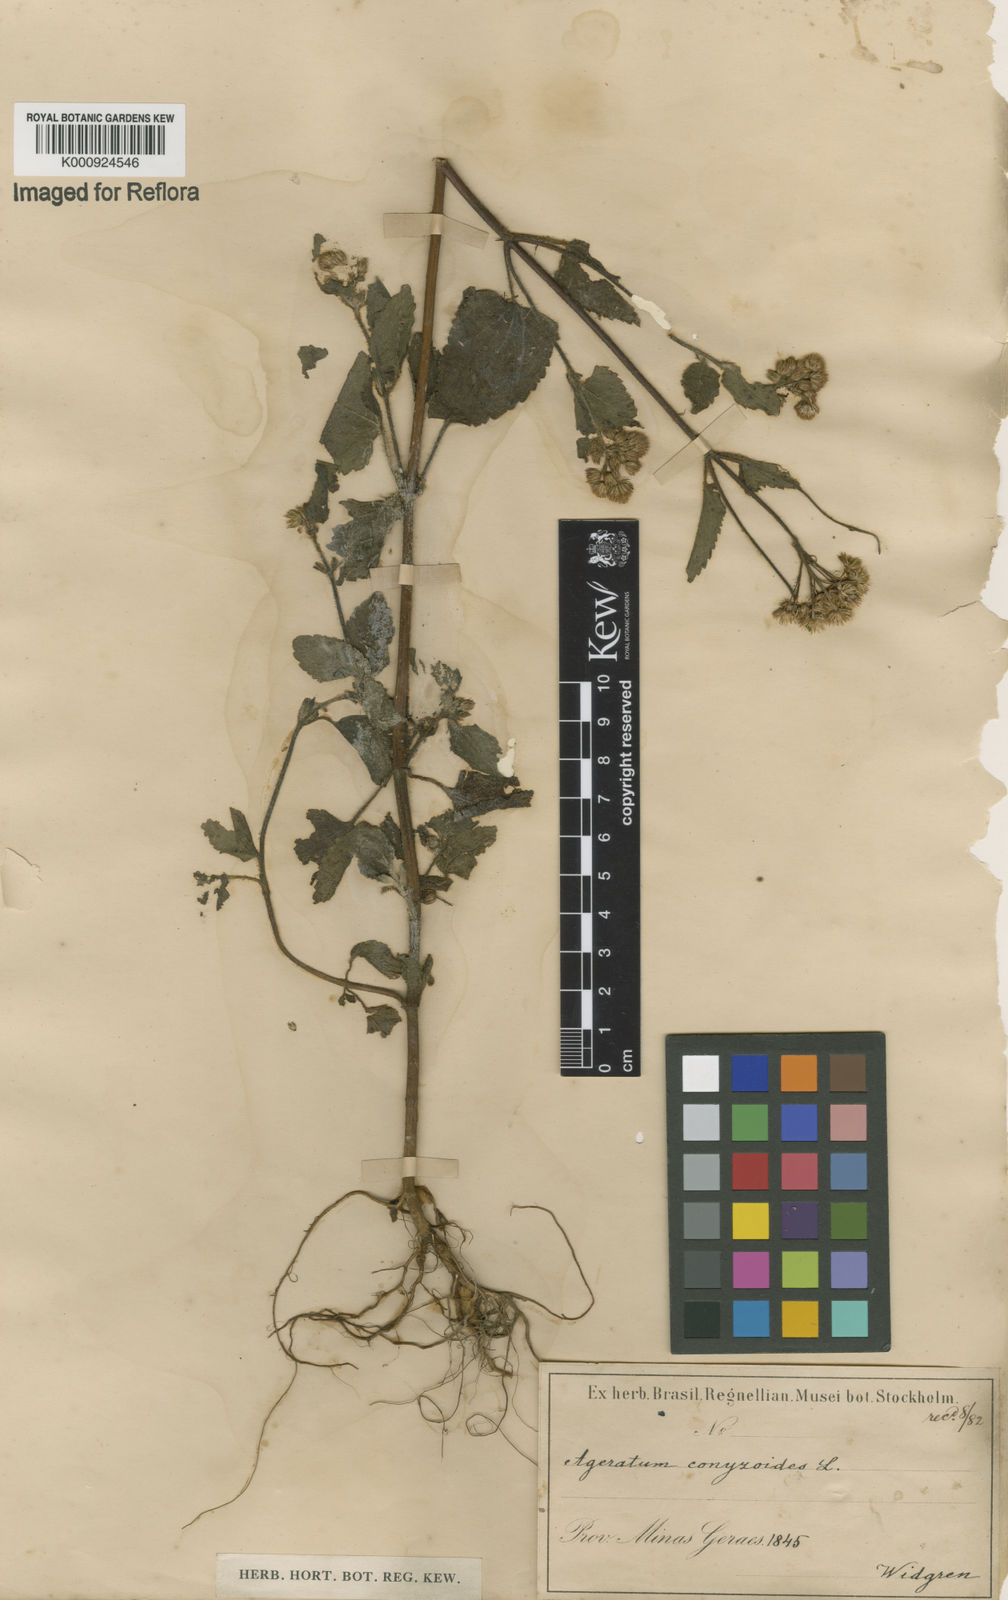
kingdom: Plantae
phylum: Tracheophyta
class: Magnoliopsida
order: Asterales
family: Asteraceae
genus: Ageratum
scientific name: Ageratum conyzoides
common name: Tropical whiteweed
